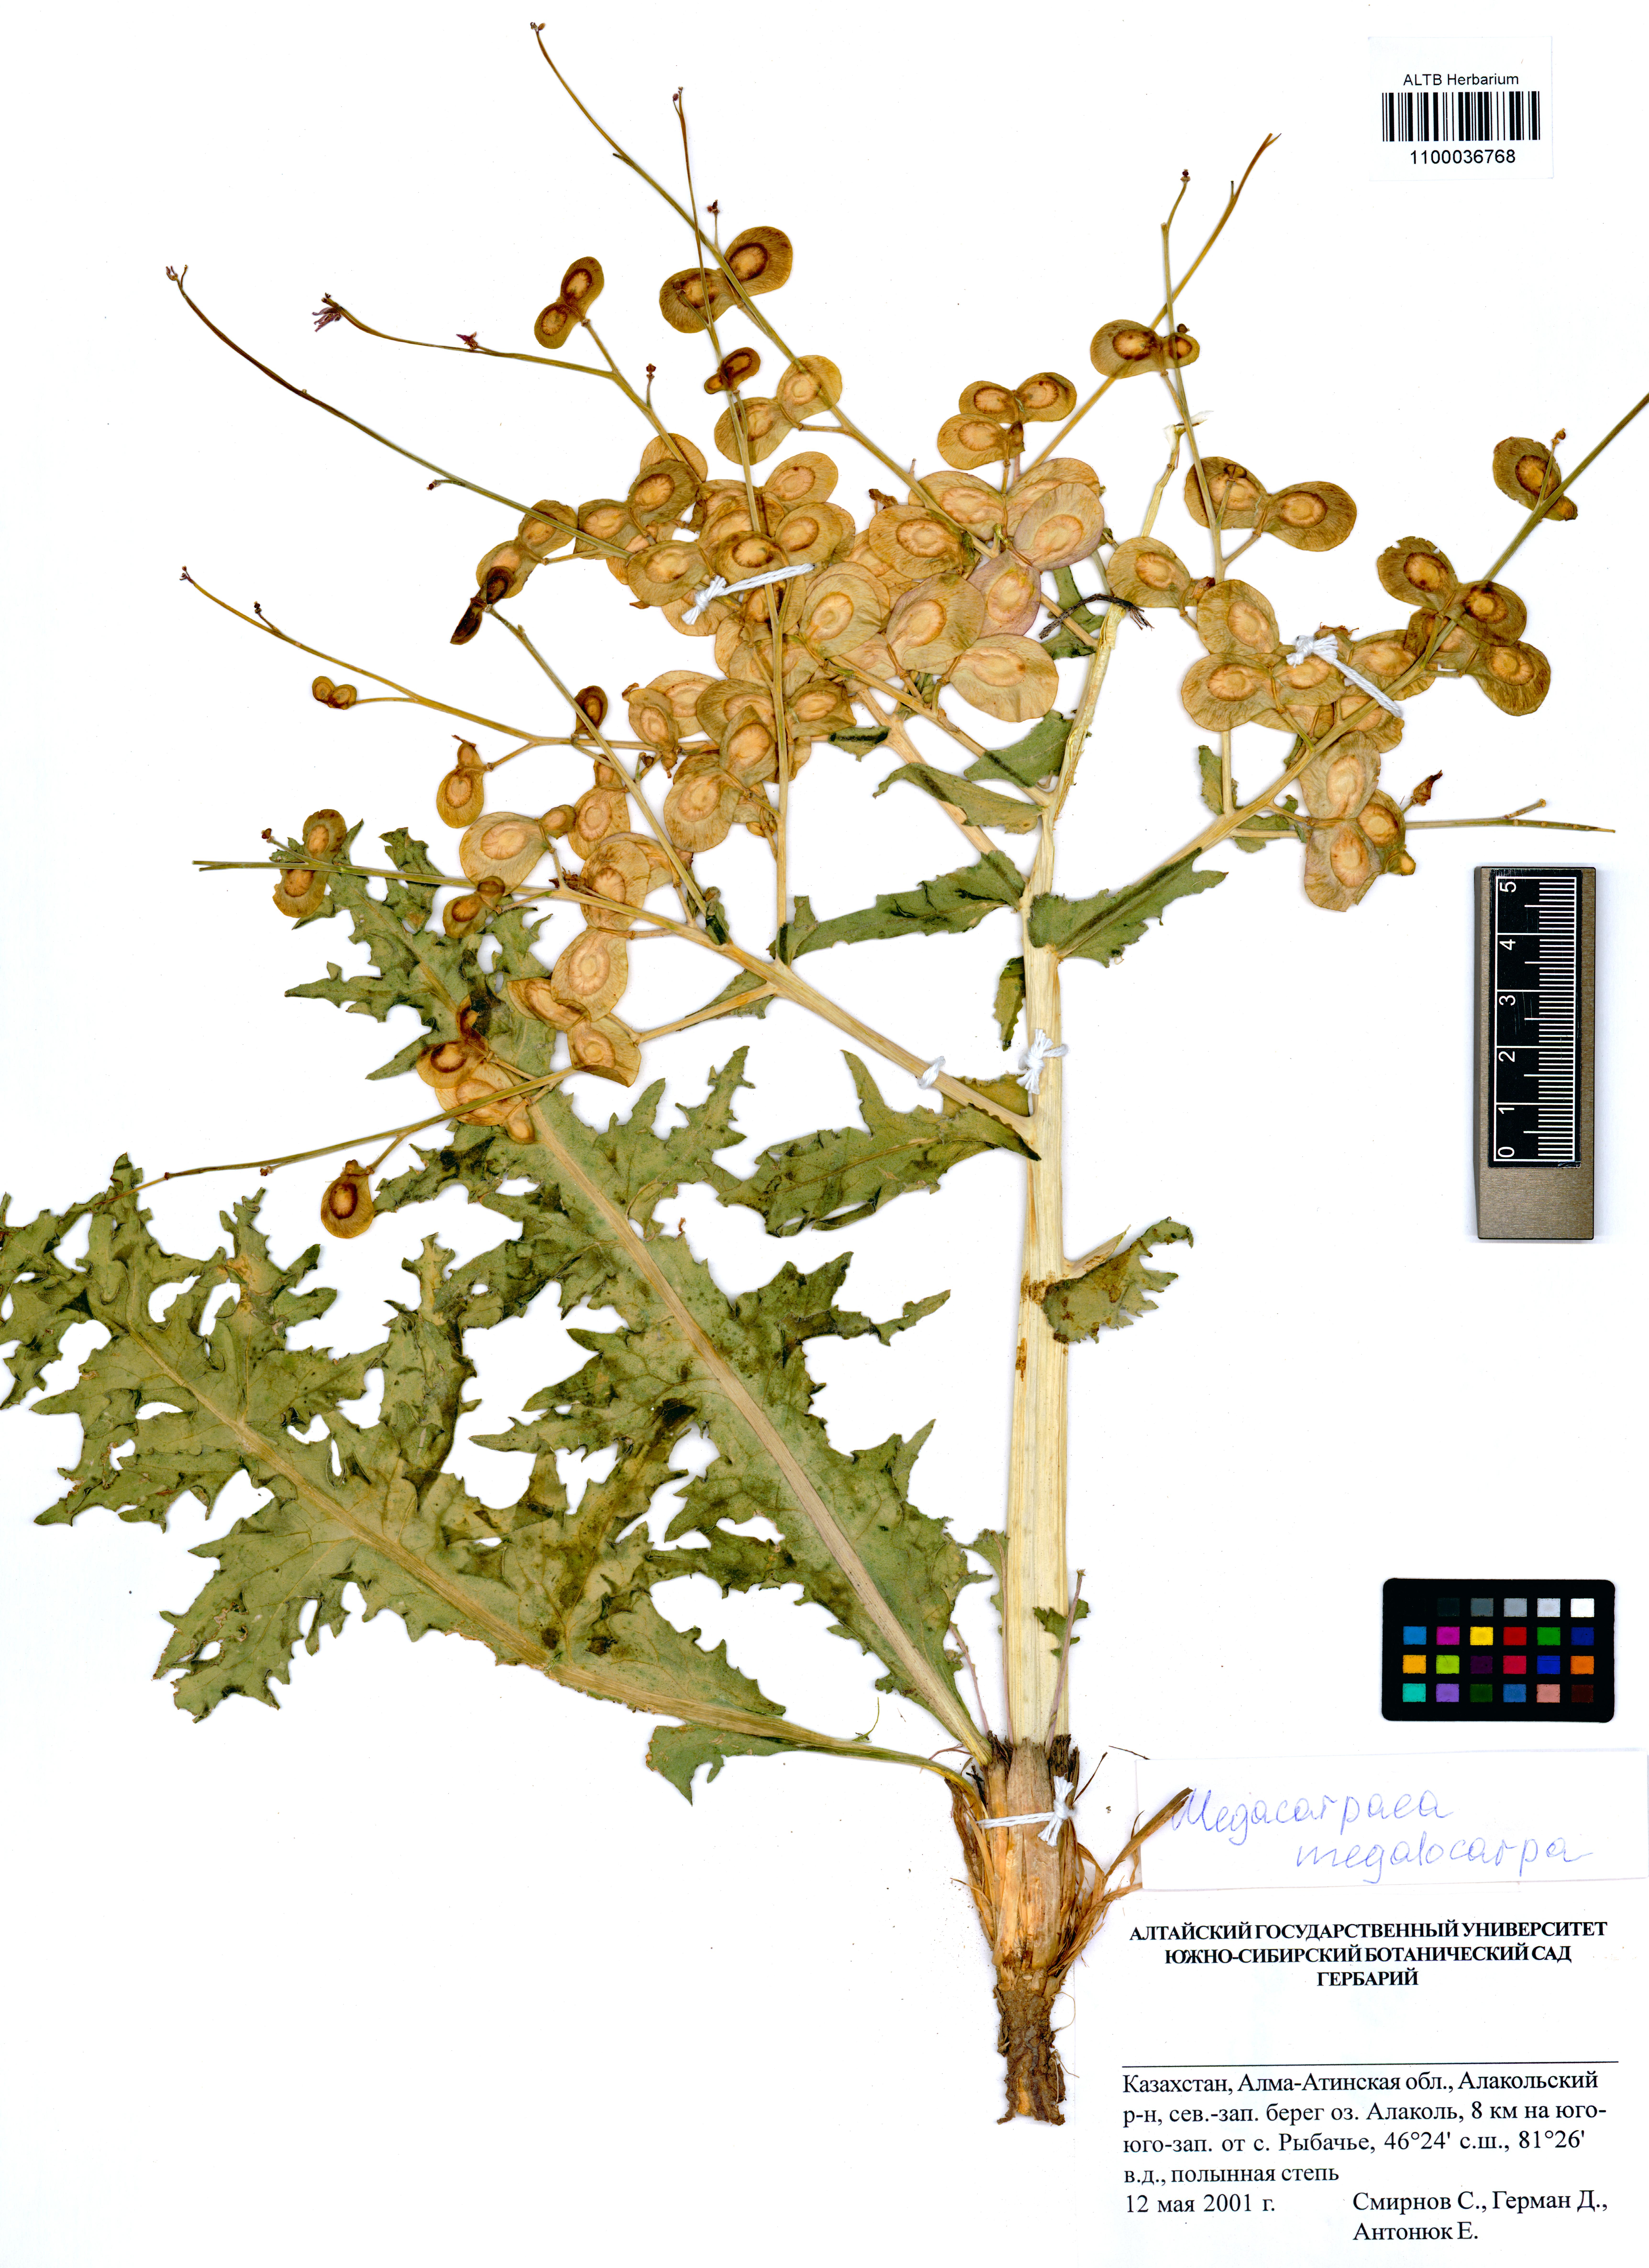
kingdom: Plantae
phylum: Tracheophyta
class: Magnoliopsida
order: Brassicales
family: Brassicaceae
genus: Megacarpaea
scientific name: Megacarpaea megalocarpa
